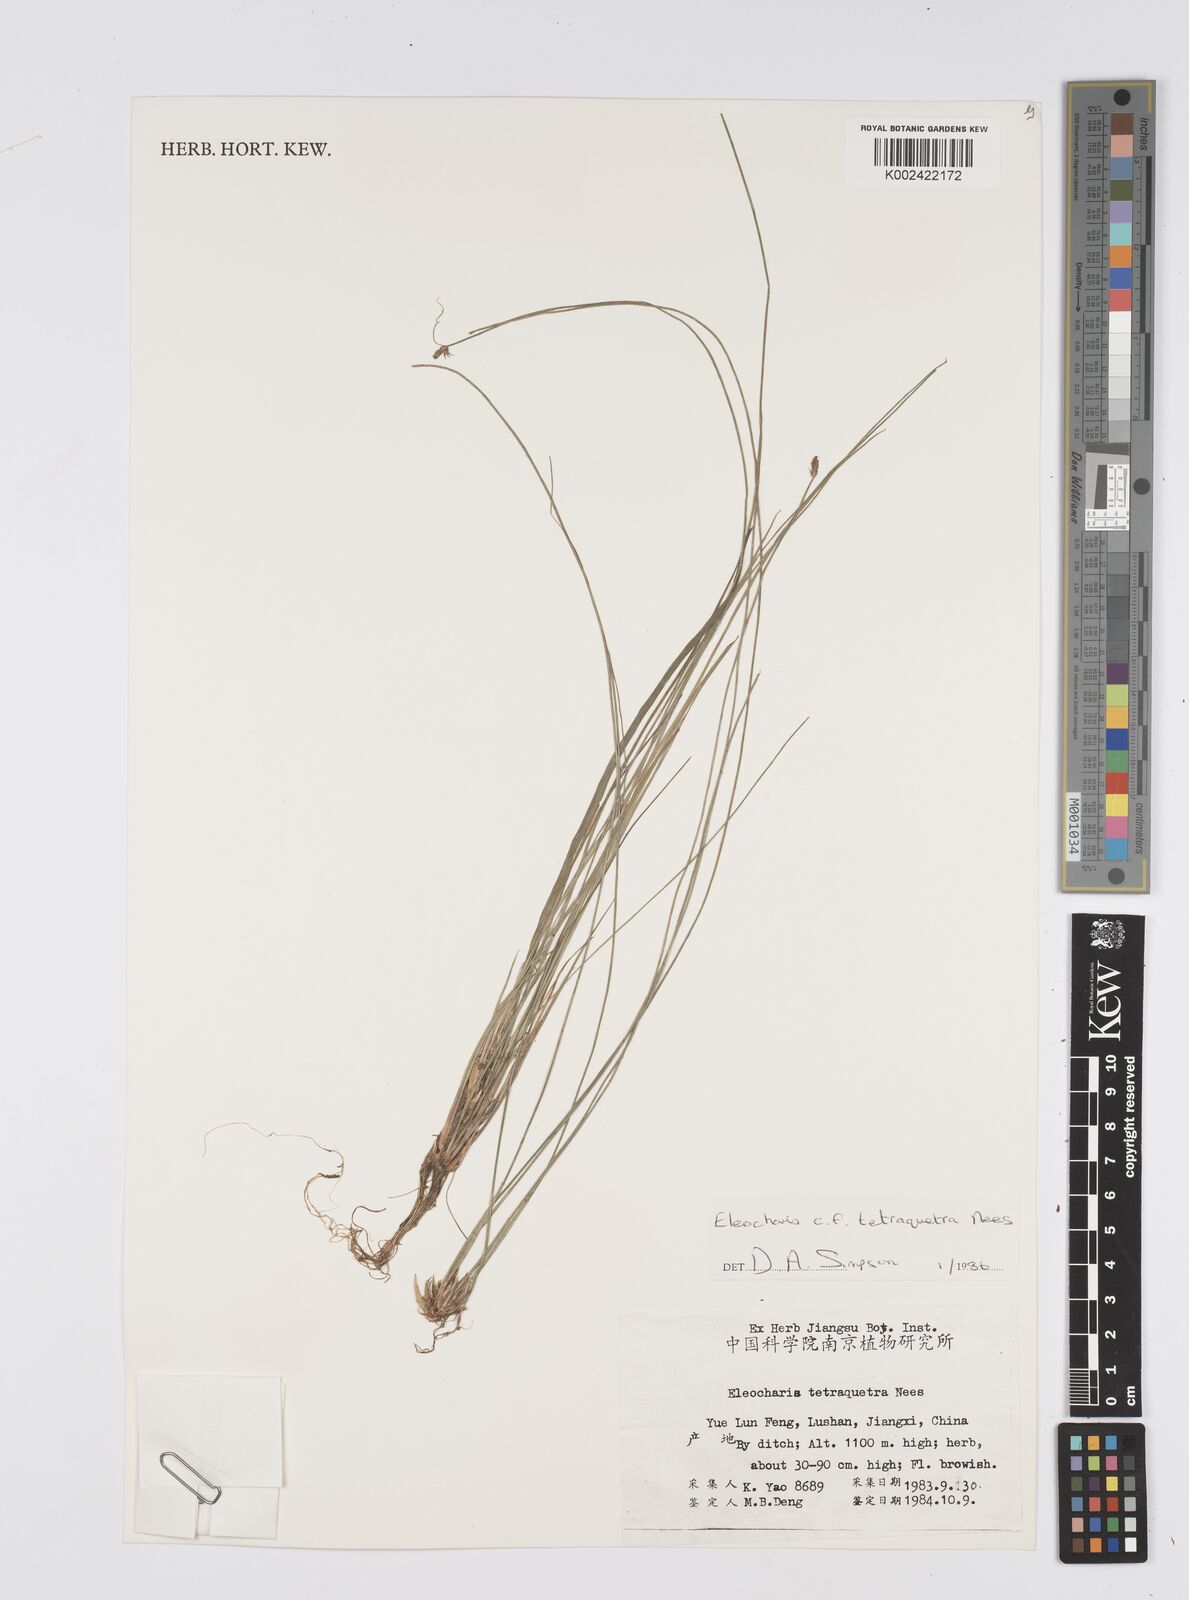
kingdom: Plantae
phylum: Tracheophyta
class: Liliopsida
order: Poales
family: Cyperaceae
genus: Eleocharis
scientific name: Eleocharis tetraquetra
